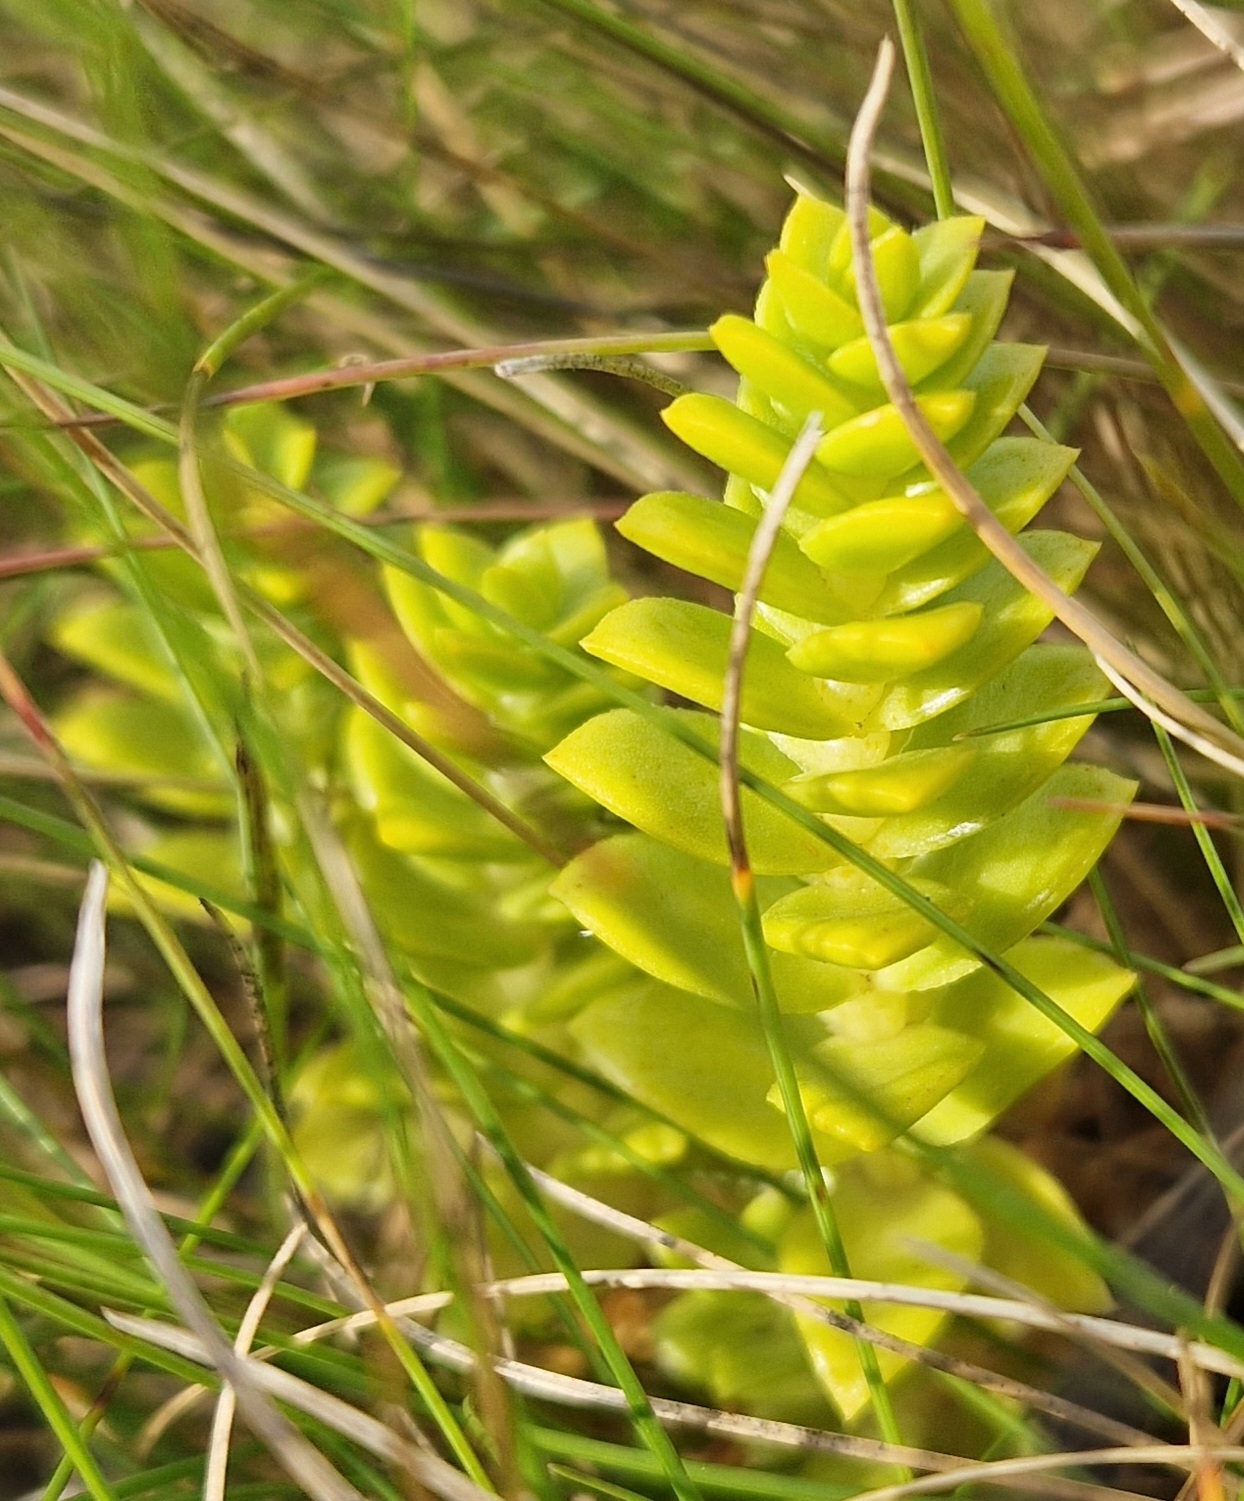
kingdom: Plantae
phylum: Tracheophyta
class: Magnoliopsida
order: Caryophyllales
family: Caryophyllaceae
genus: Honckenya
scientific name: Honckenya peploides
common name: Strandarve
